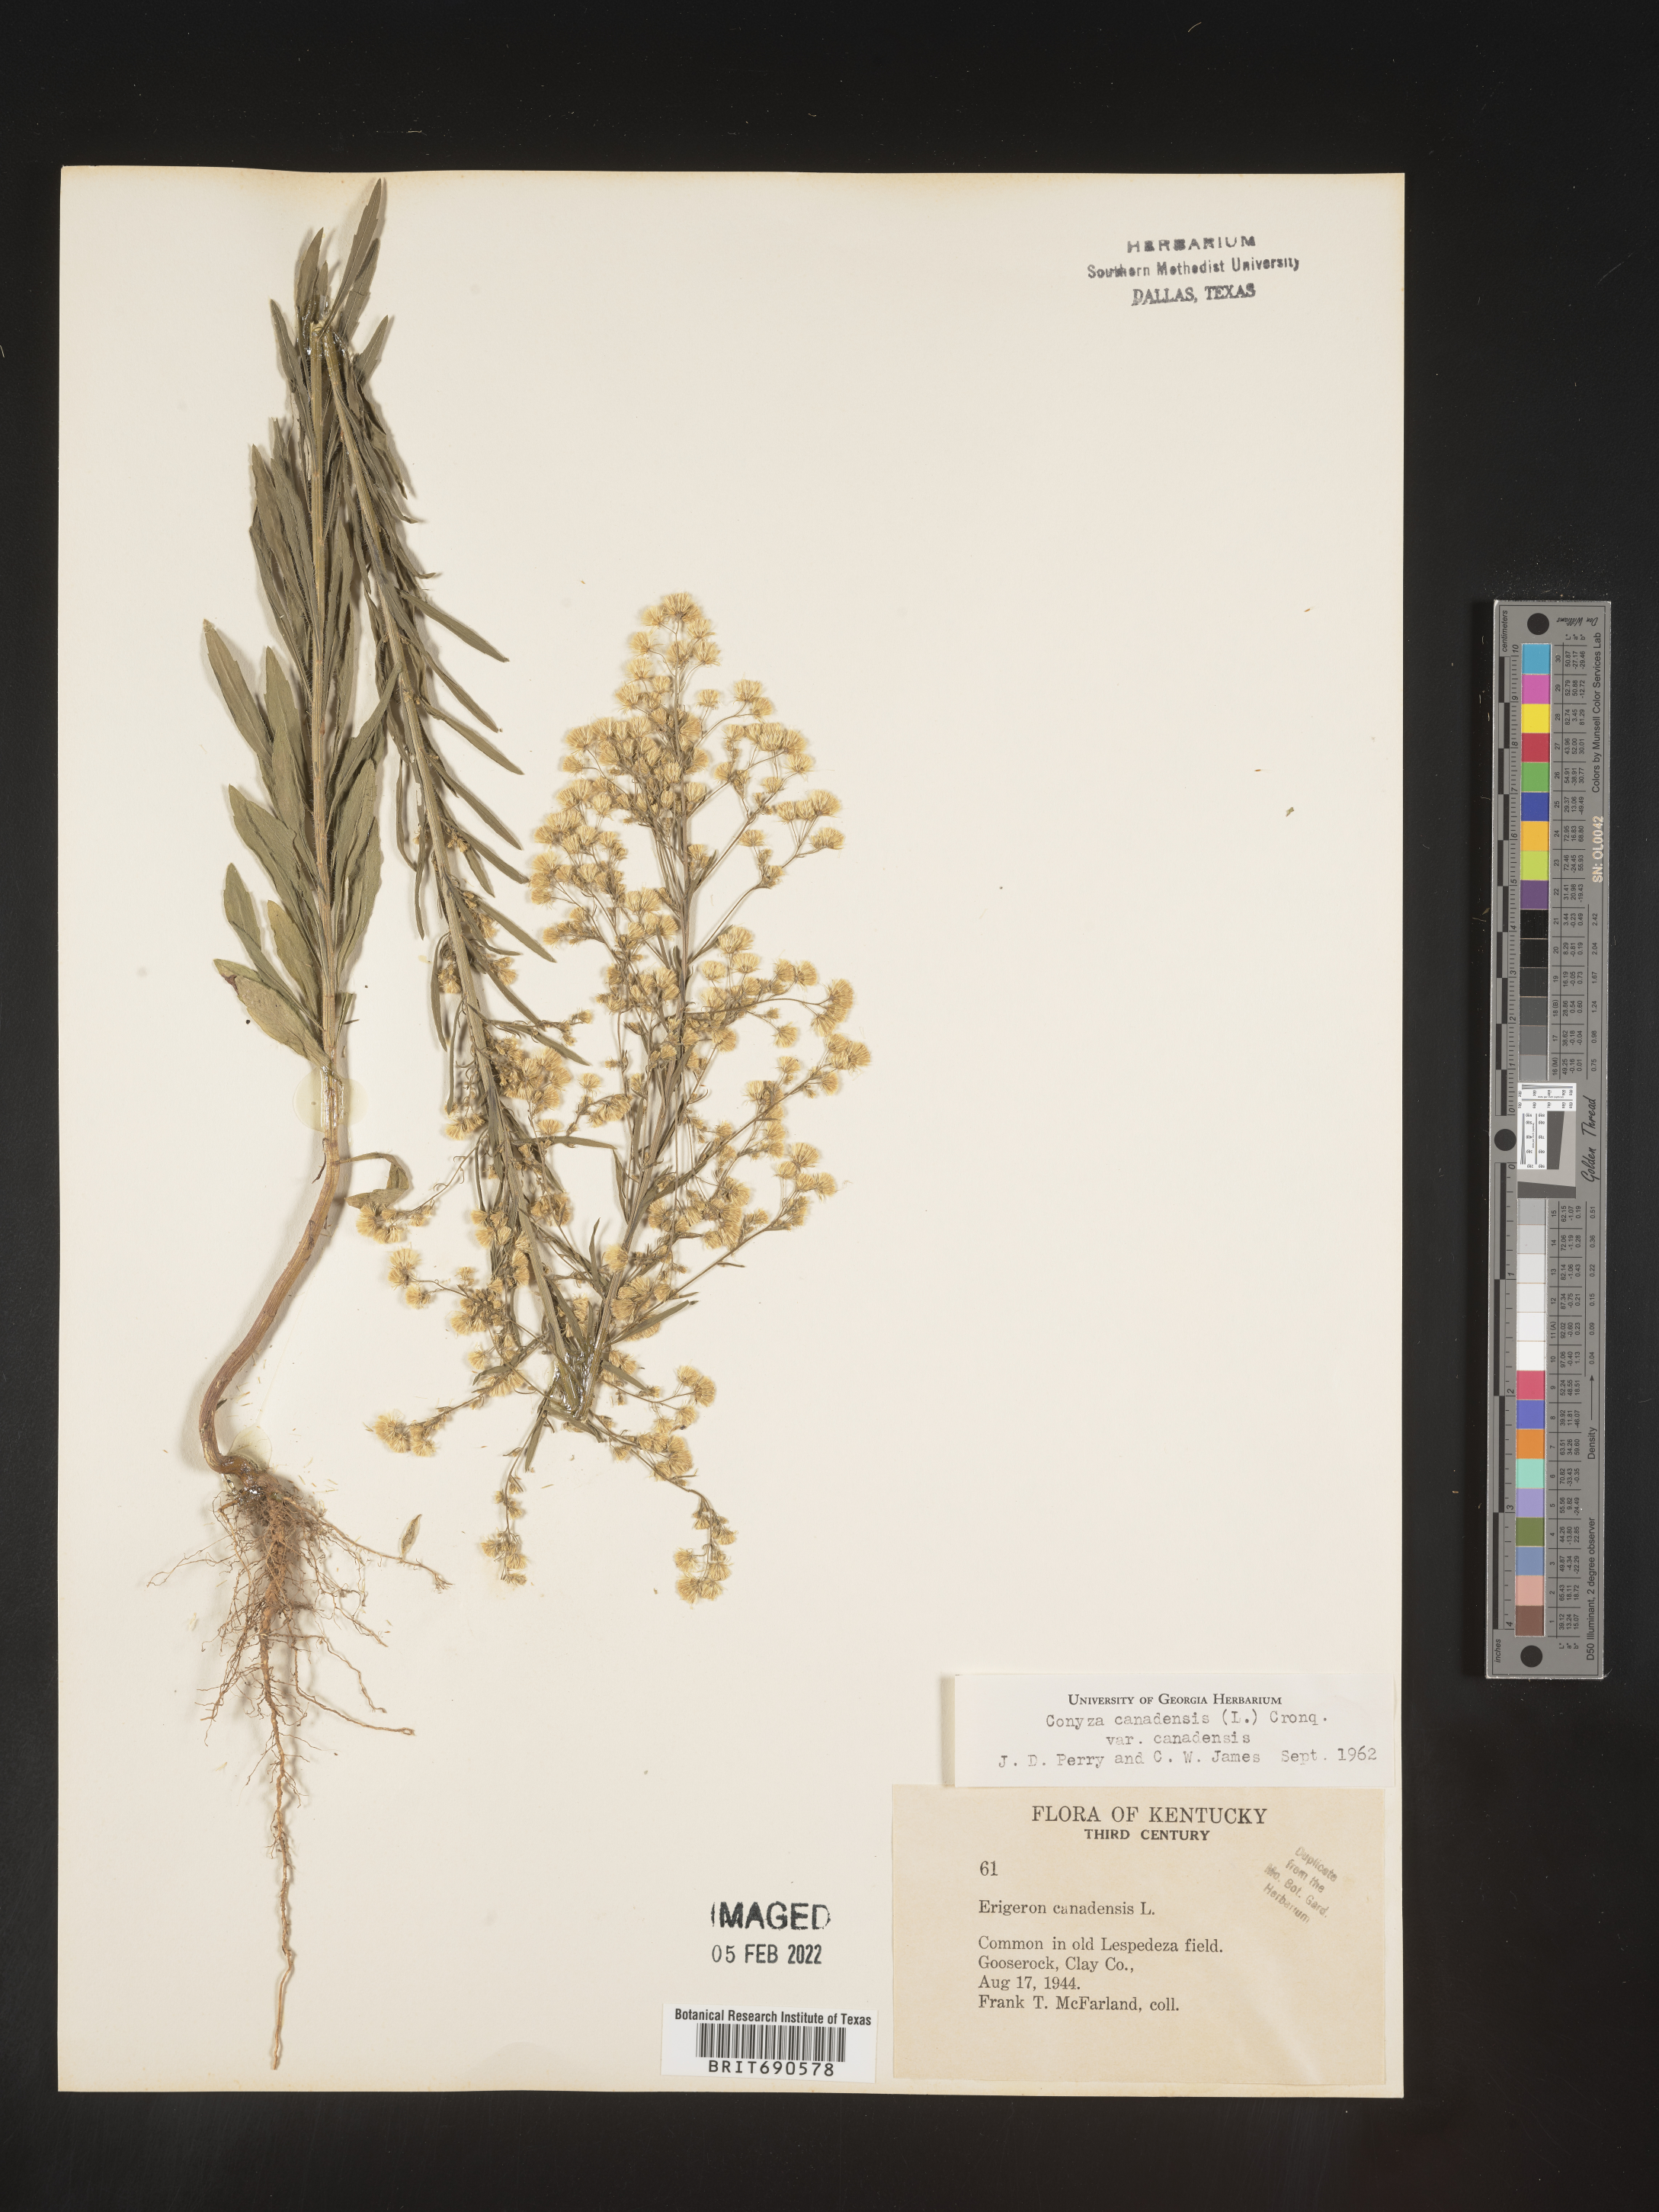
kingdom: Plantae
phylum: Tracheophyta
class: Magnoliopsida
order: Asterales
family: Asteraceae
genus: Erigeron
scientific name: Erigeron canadensis
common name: Canadian fleabane
